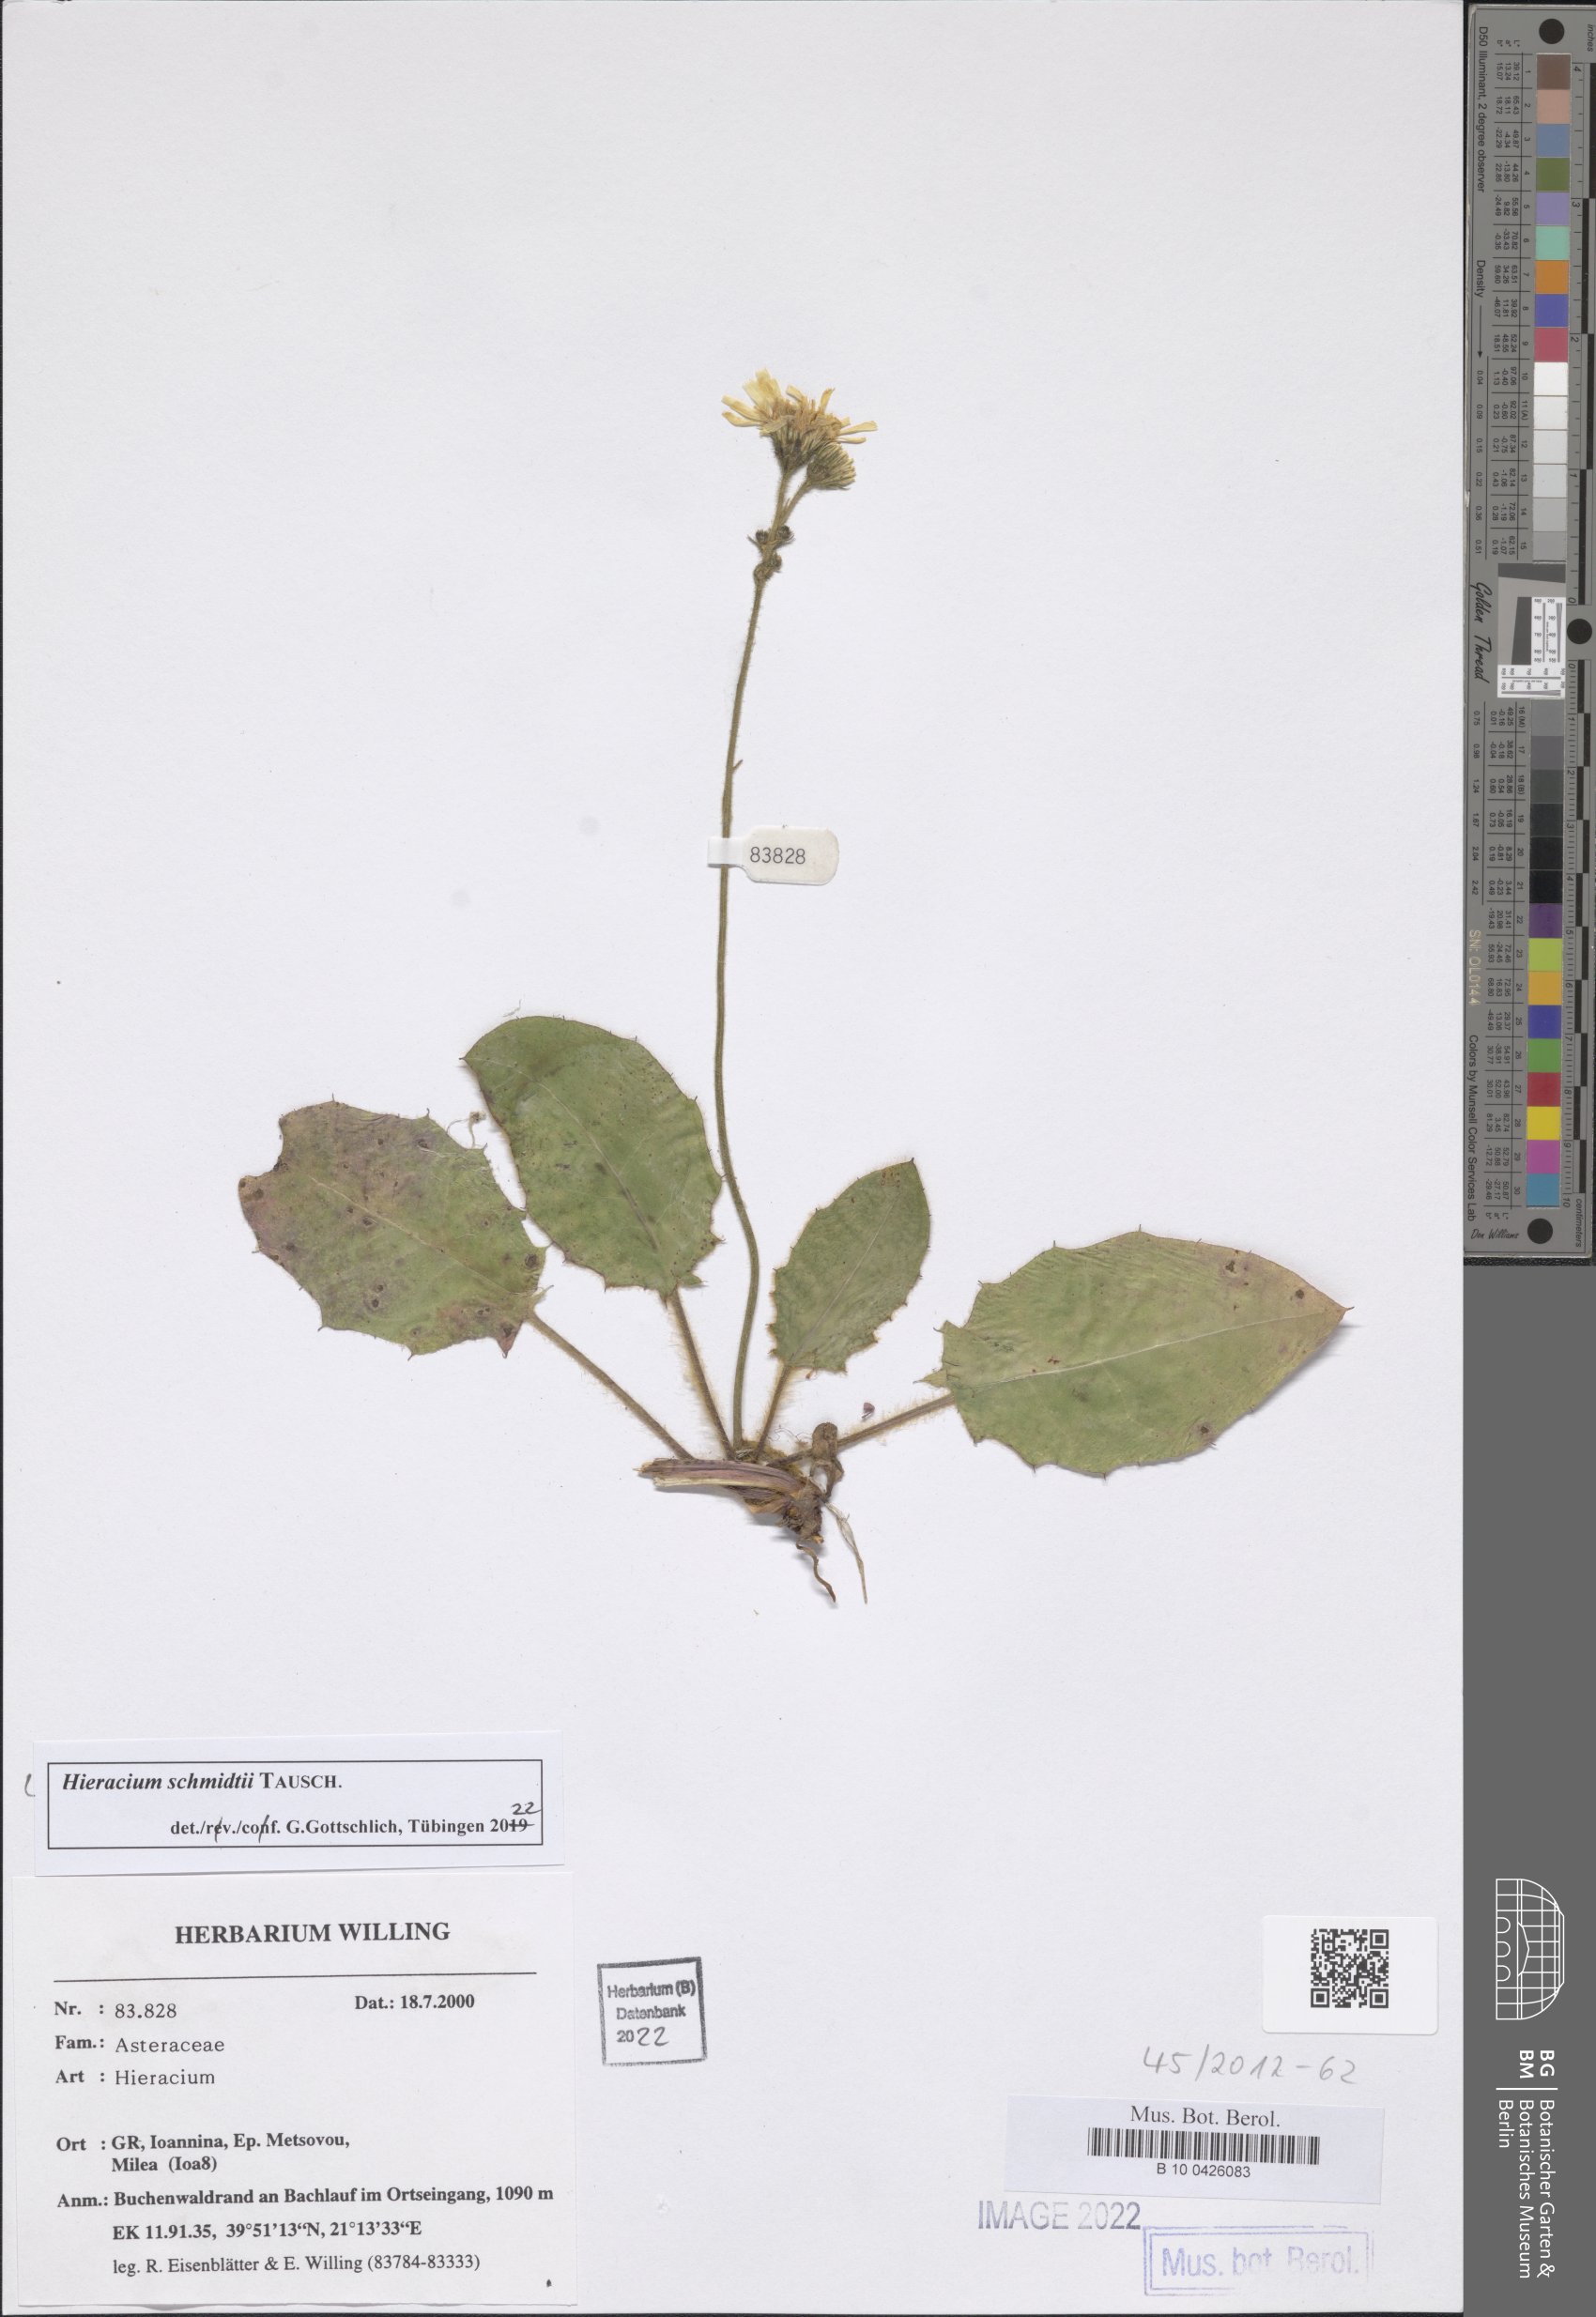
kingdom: Plantae
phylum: Tracheophyta
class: Magnoliopsida
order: Asterales
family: Asteraceae
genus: Hieracium
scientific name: Hieracium schmidtii
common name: Schmidt's hawkweed
